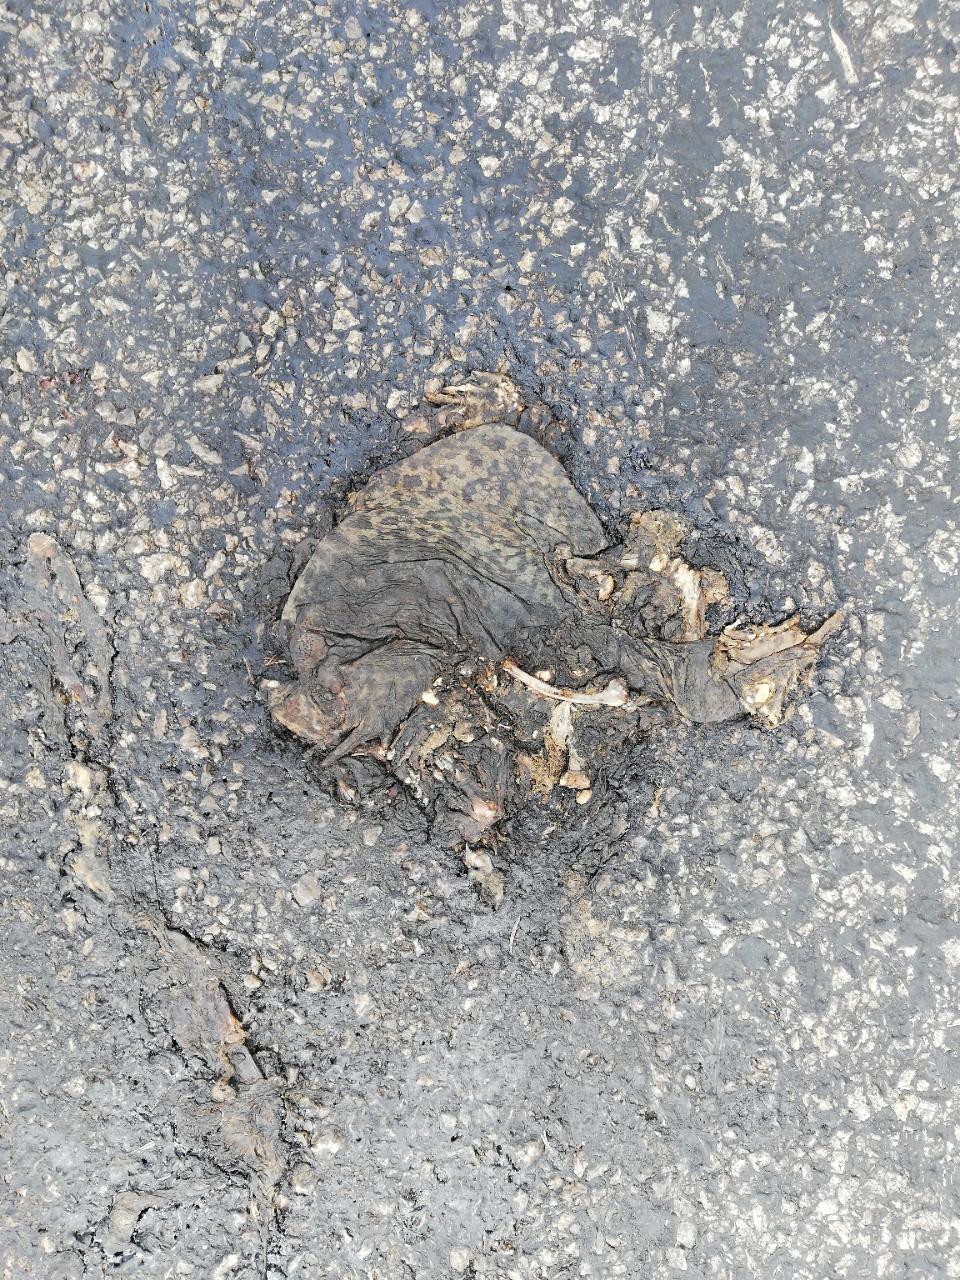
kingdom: Animalia
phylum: Chordata
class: Amphibia
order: Anura
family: Bufonidae
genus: Bufo
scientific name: Bufo bufo
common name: Common toad
